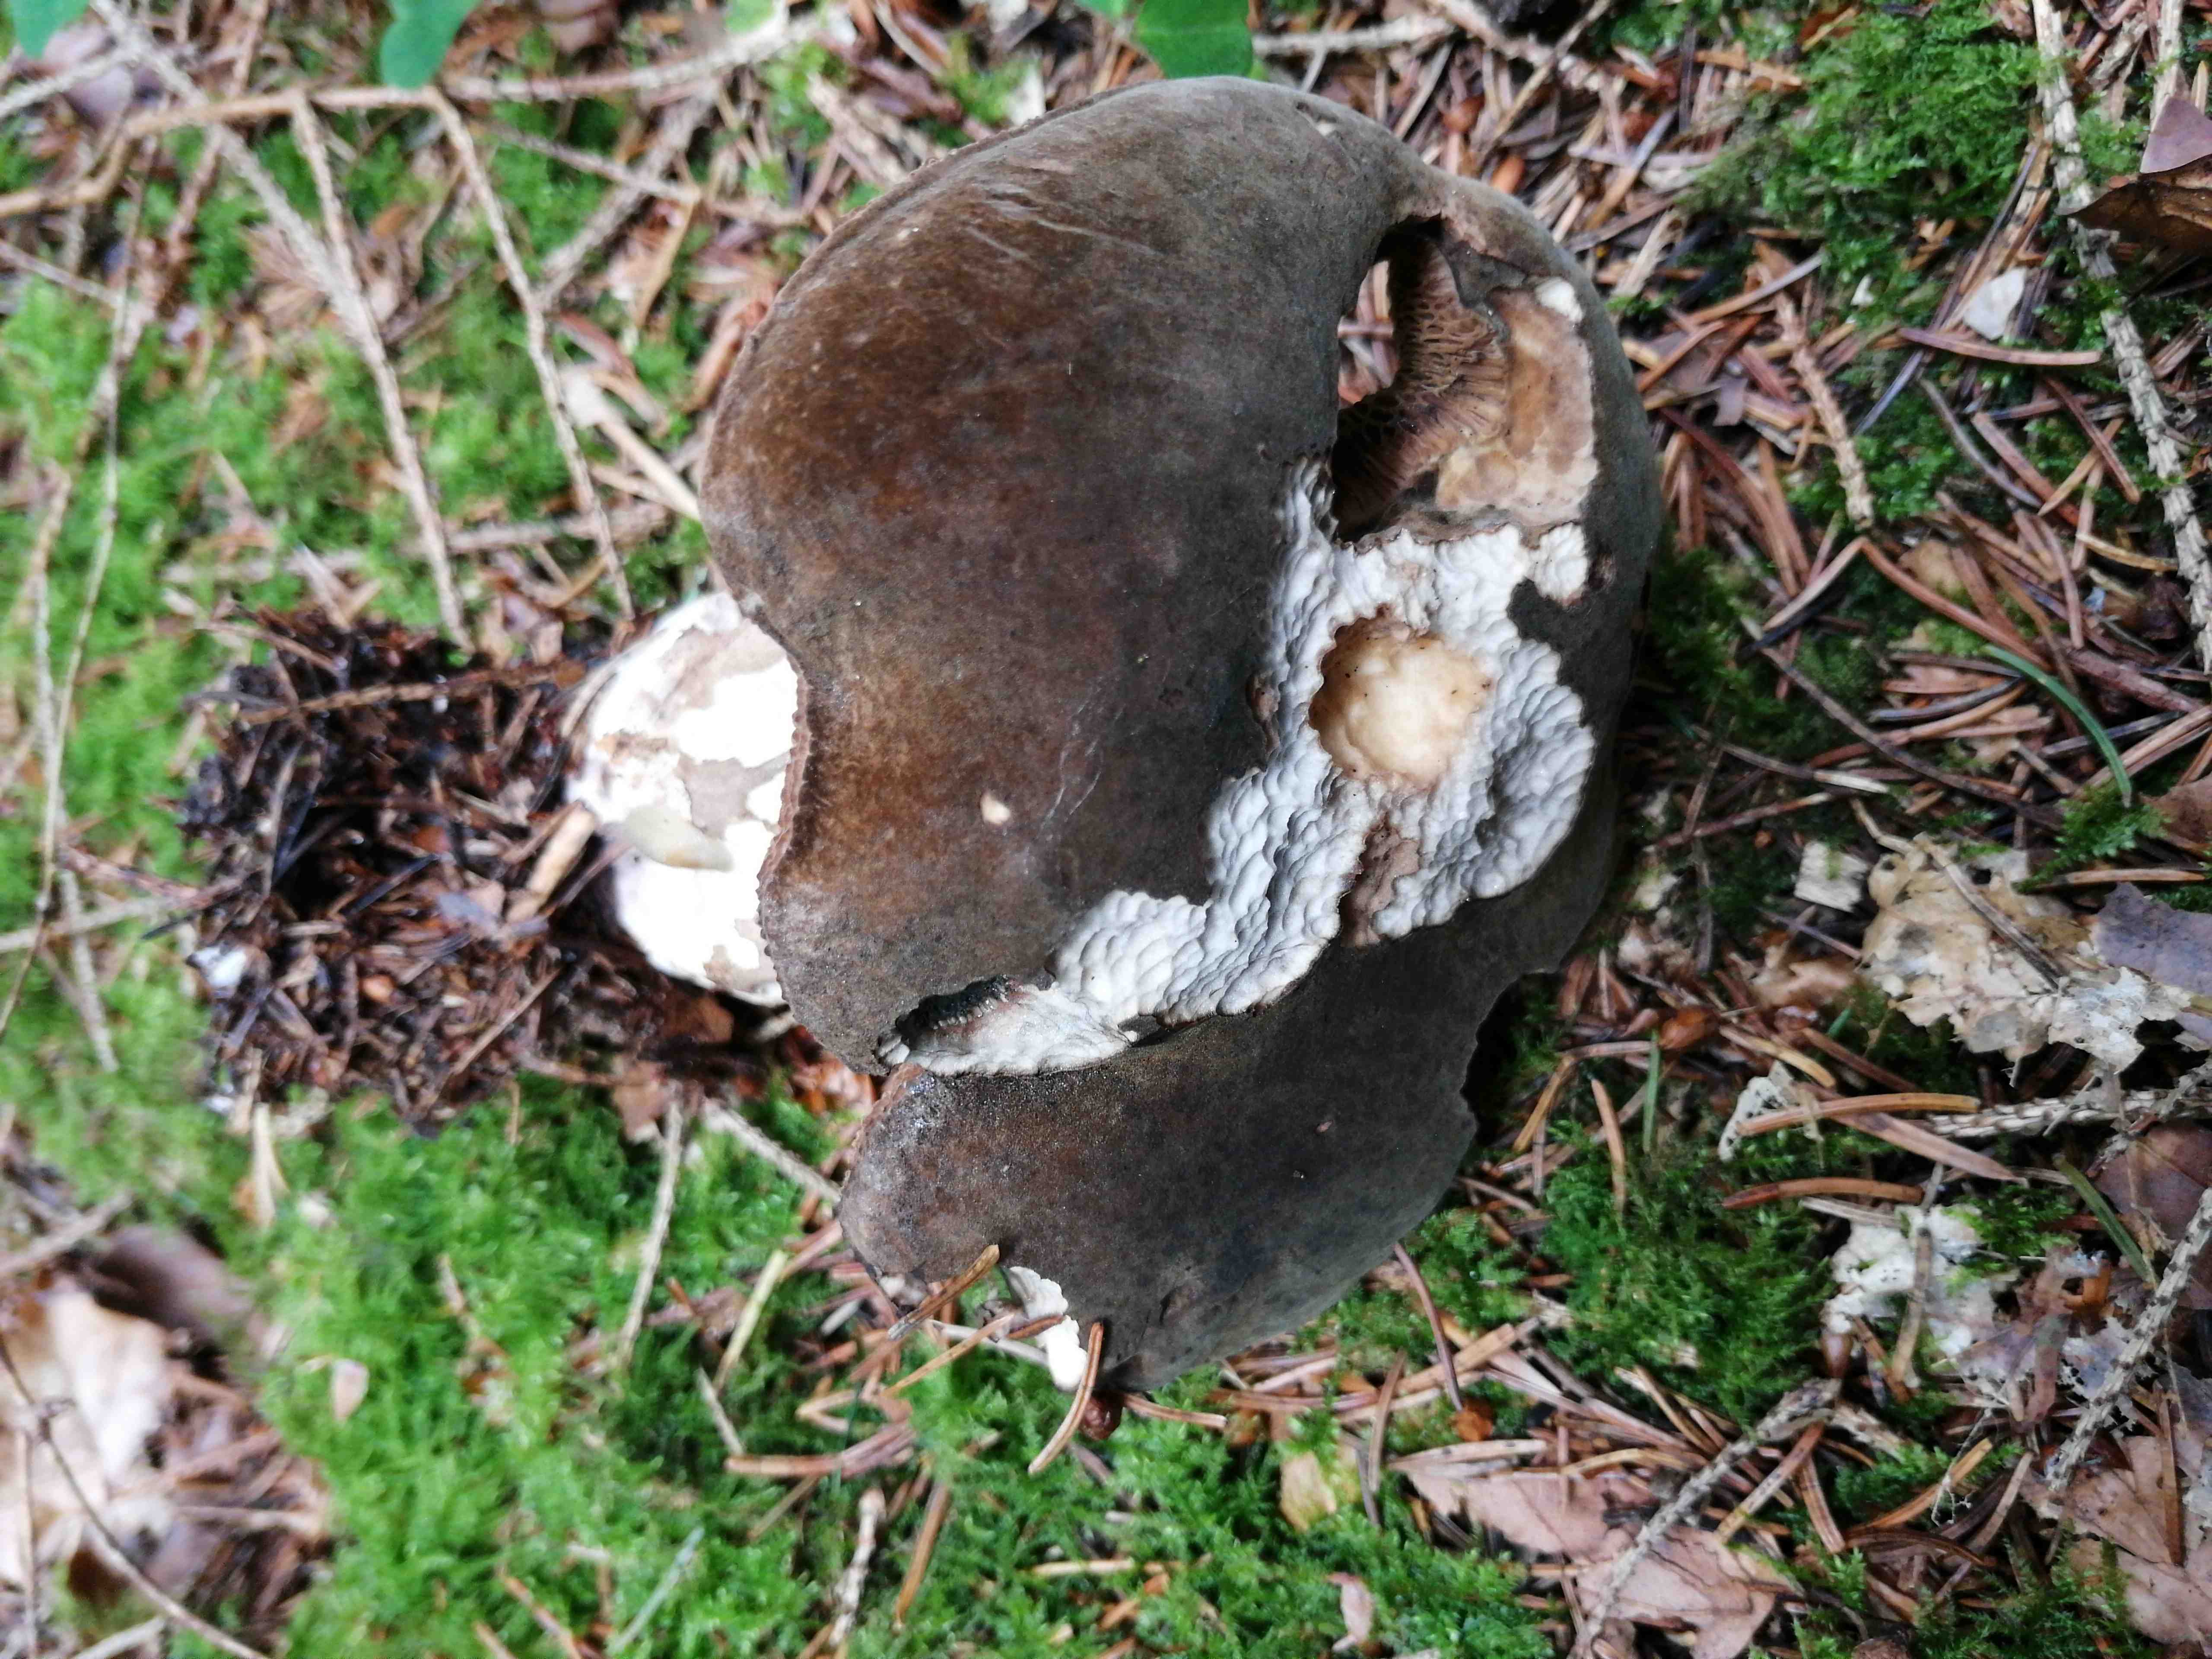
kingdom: Fungi
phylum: Basidiomycota
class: Agaricomycetes
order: Boletales
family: Boletaceae
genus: Porphyrellus
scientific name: Porphyrellus porphyrosporus
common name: sodrørhat
